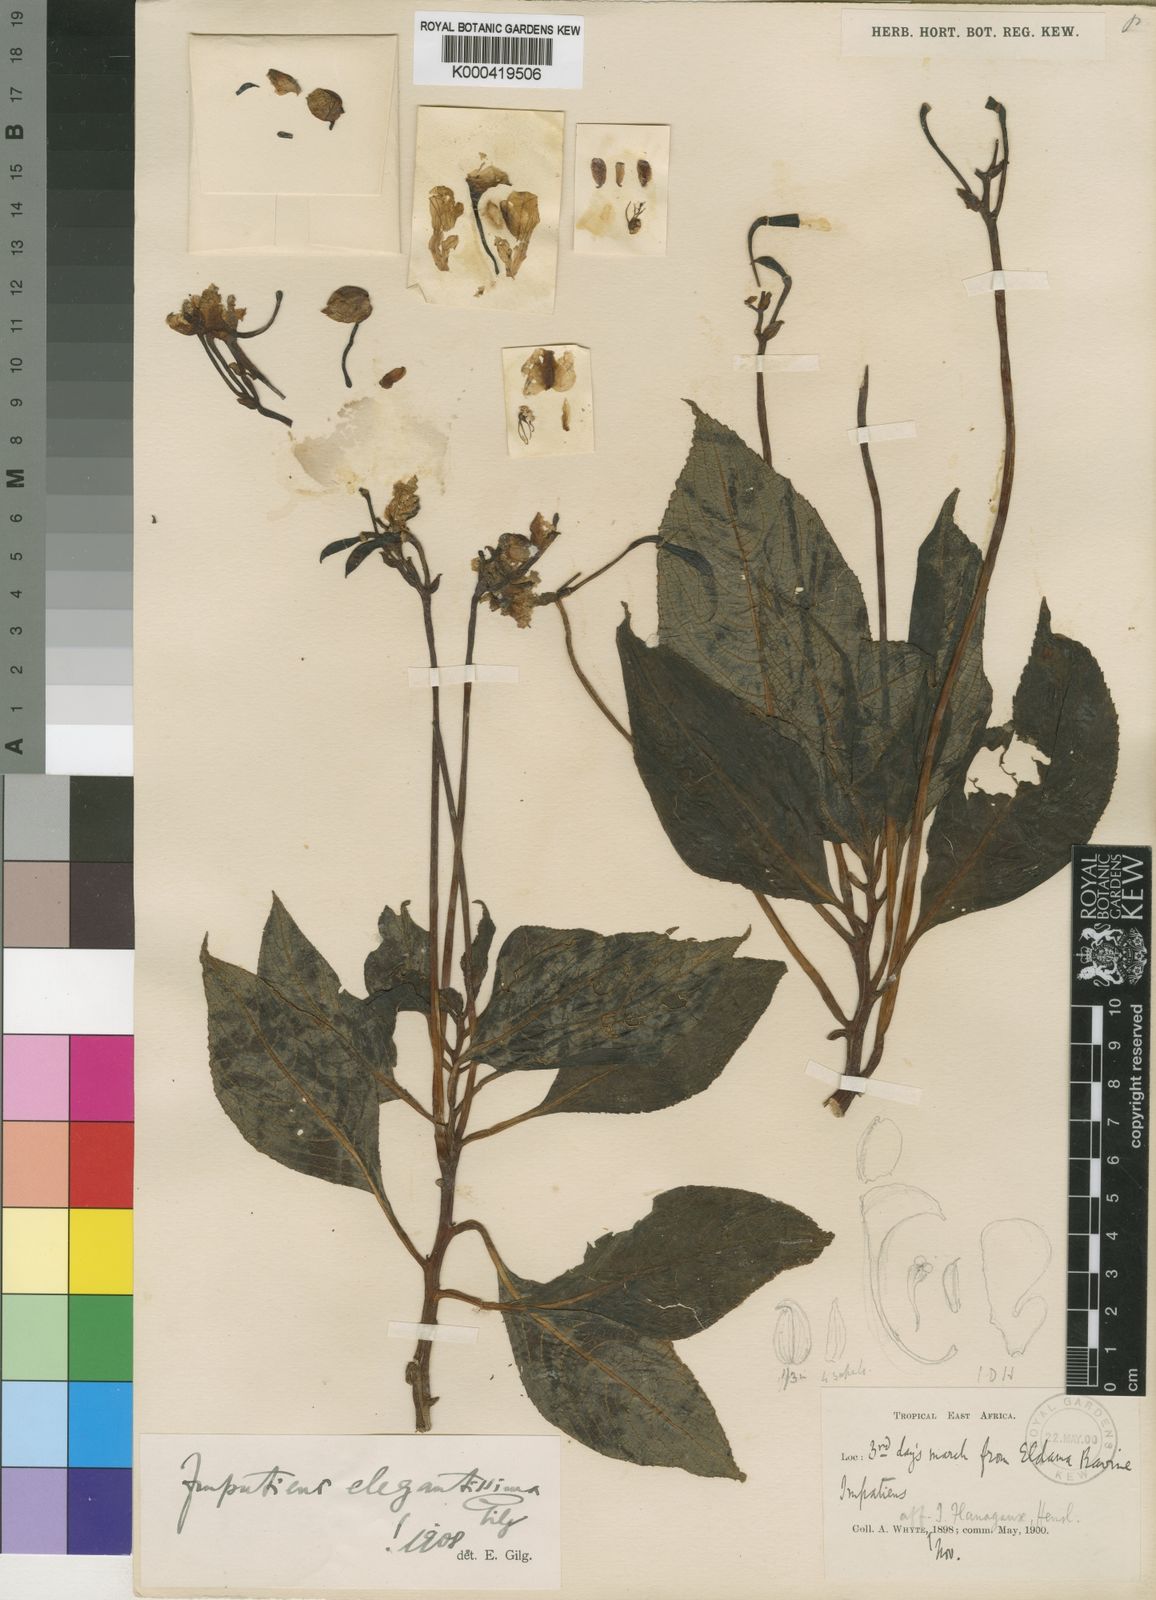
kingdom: Plantae
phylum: Tracheophyta
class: Magnoliopsida
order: Ericales
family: Balsaminaceae
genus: Impatiens
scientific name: Impatiens tinctoria
